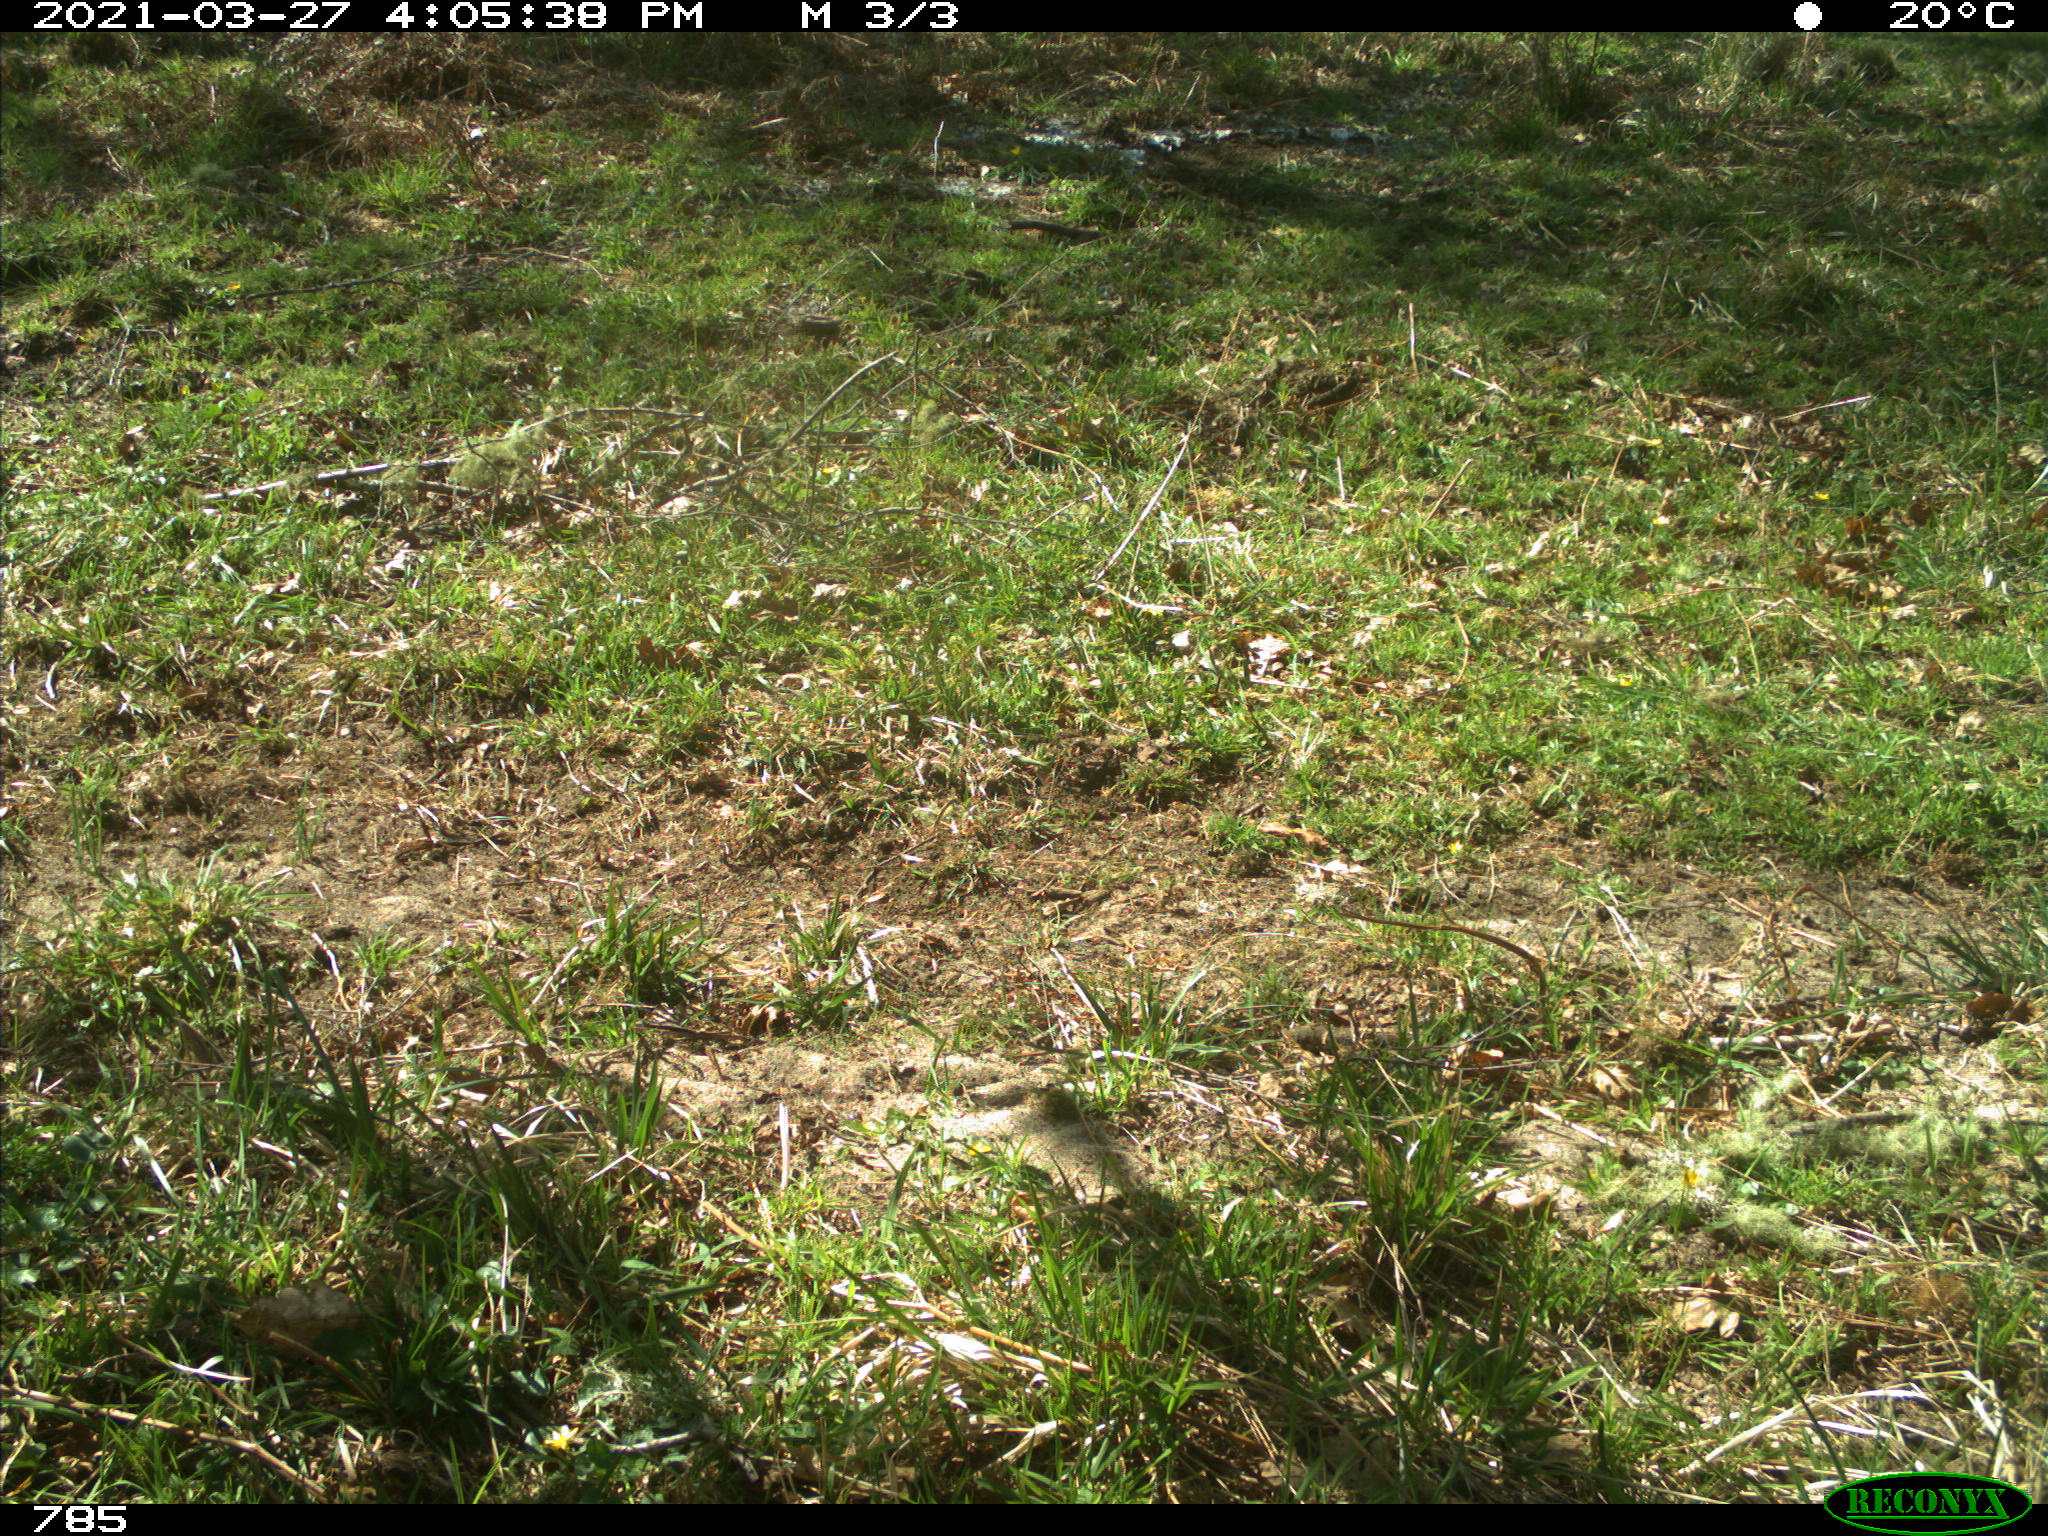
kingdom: Animalia
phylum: Chordata
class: Mammalia
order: Perissodactyla
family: Equidae
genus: Equus
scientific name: Equus caballus
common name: Horse
